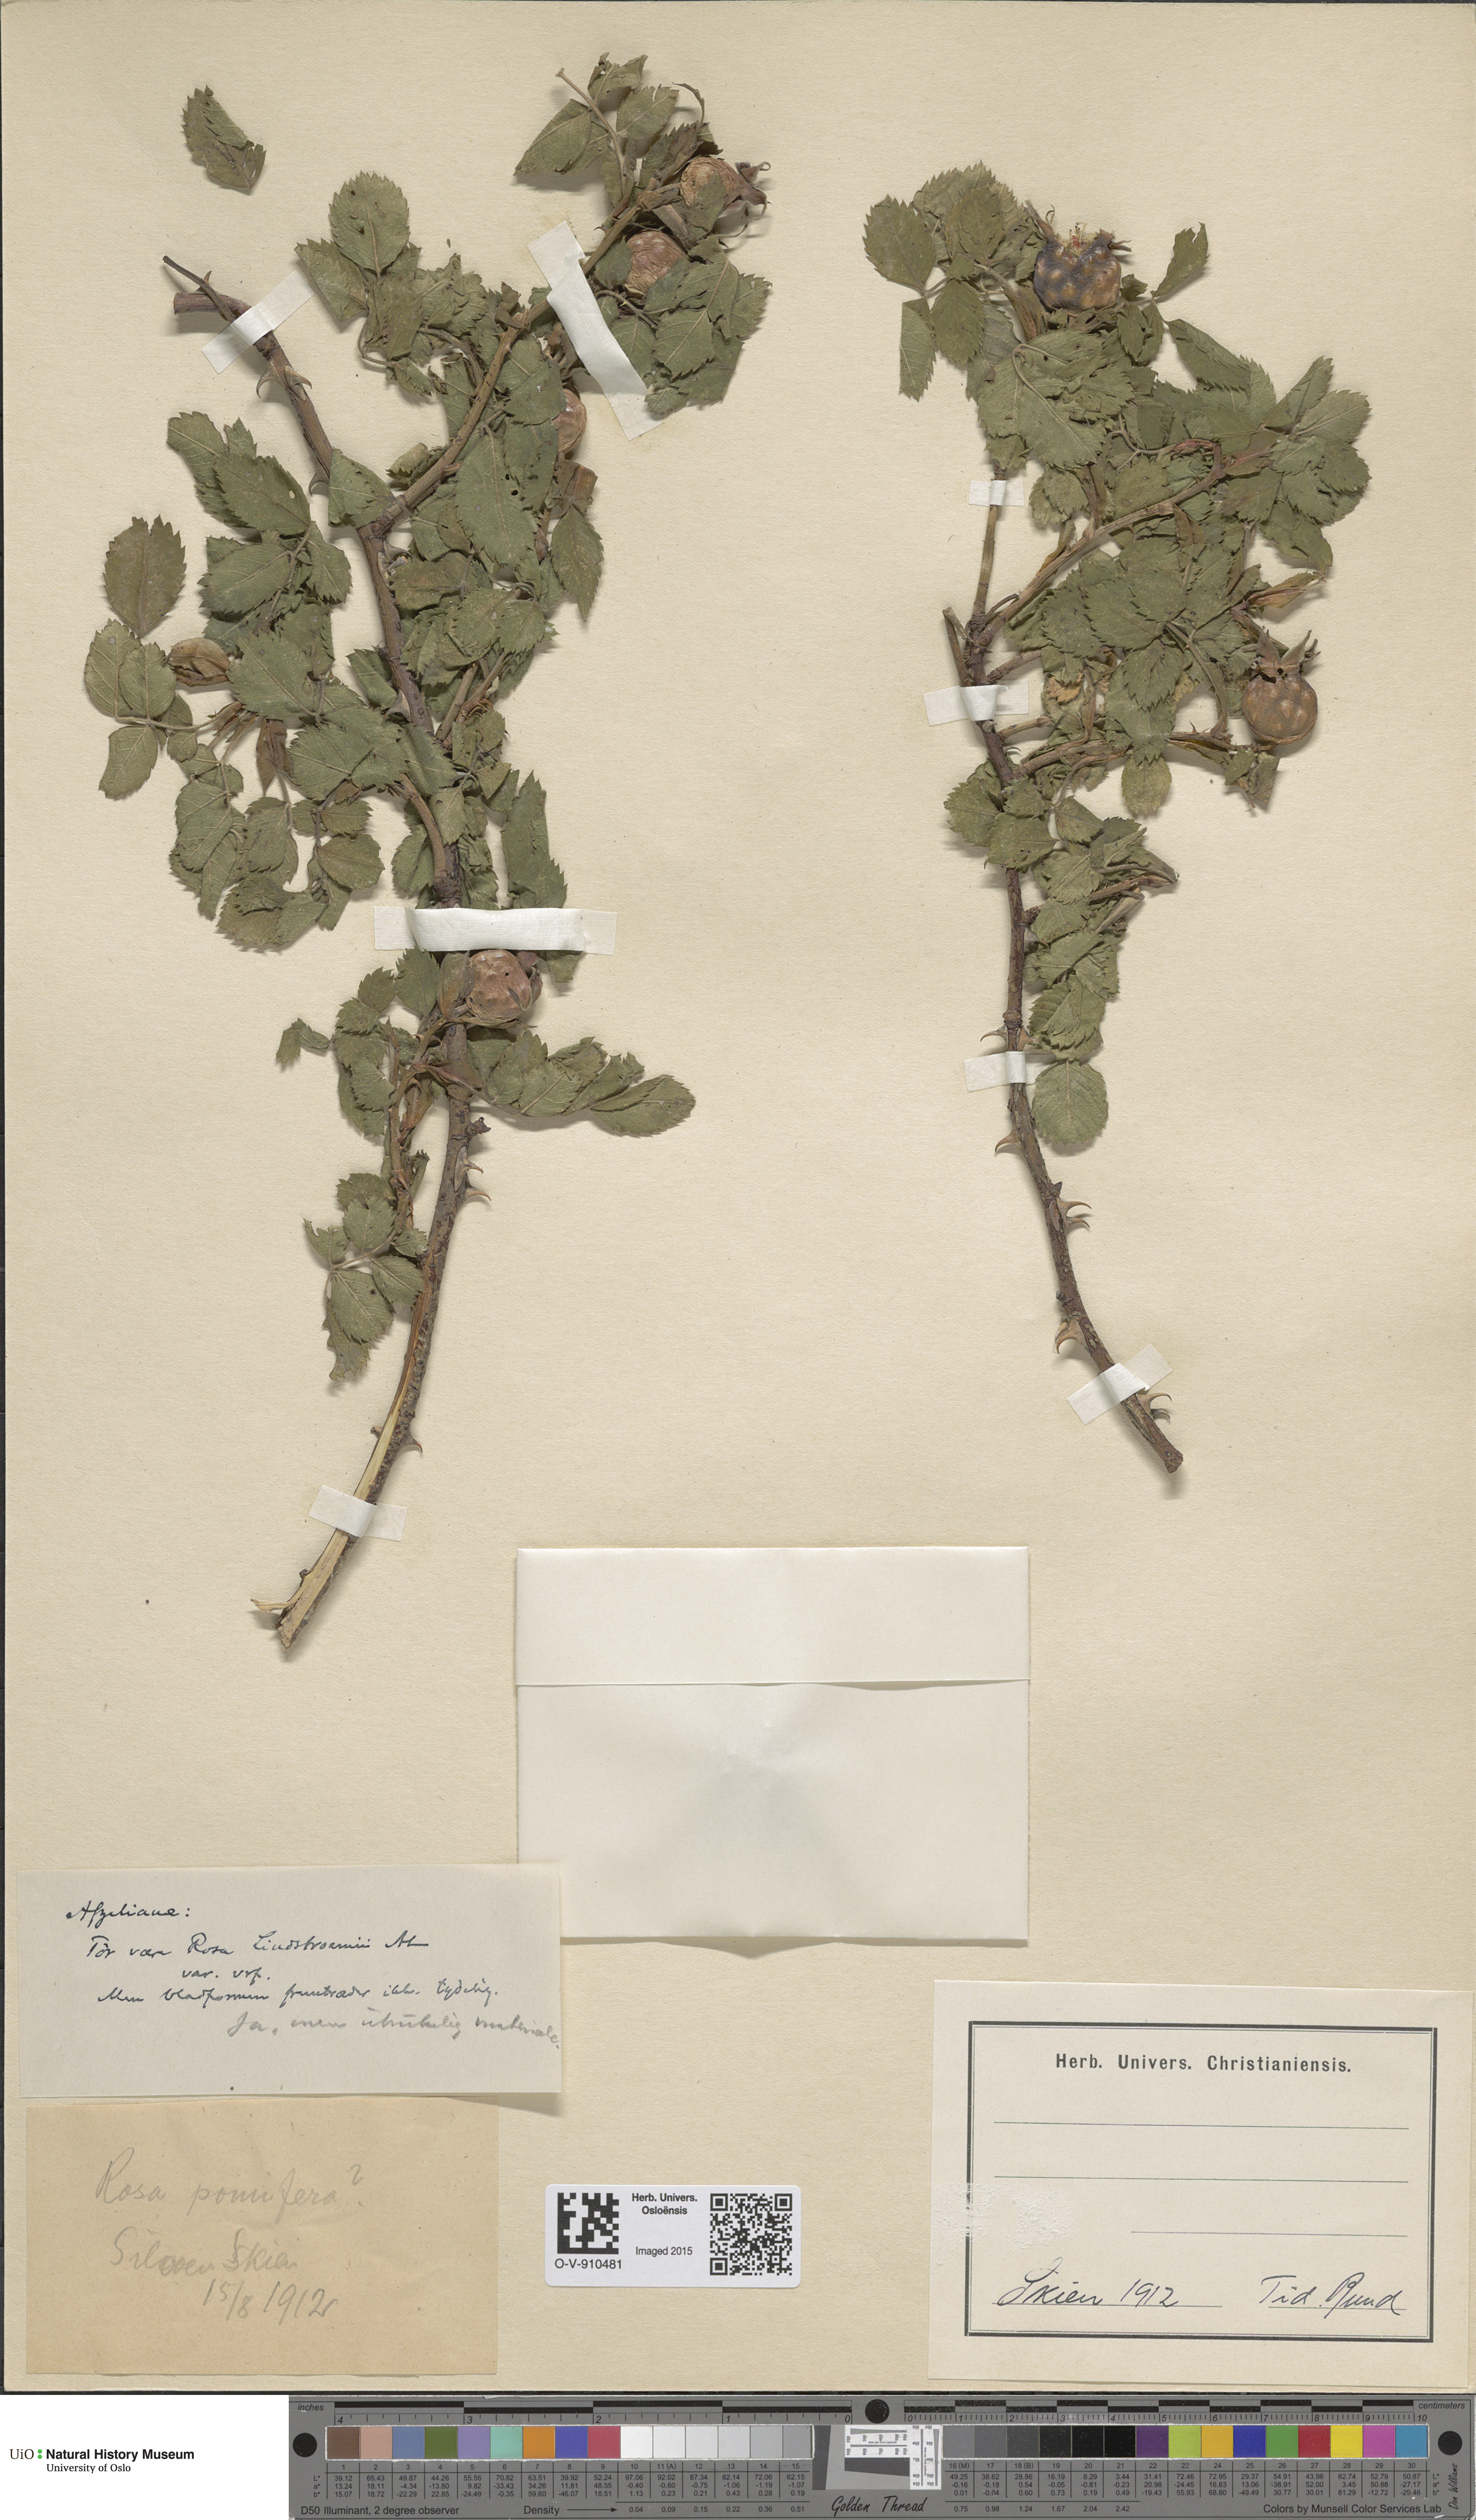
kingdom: Plantae
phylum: Tracheophyta
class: Magnoliopsida
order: Rosales
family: Rosaceae
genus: Rosa
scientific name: Rosa
